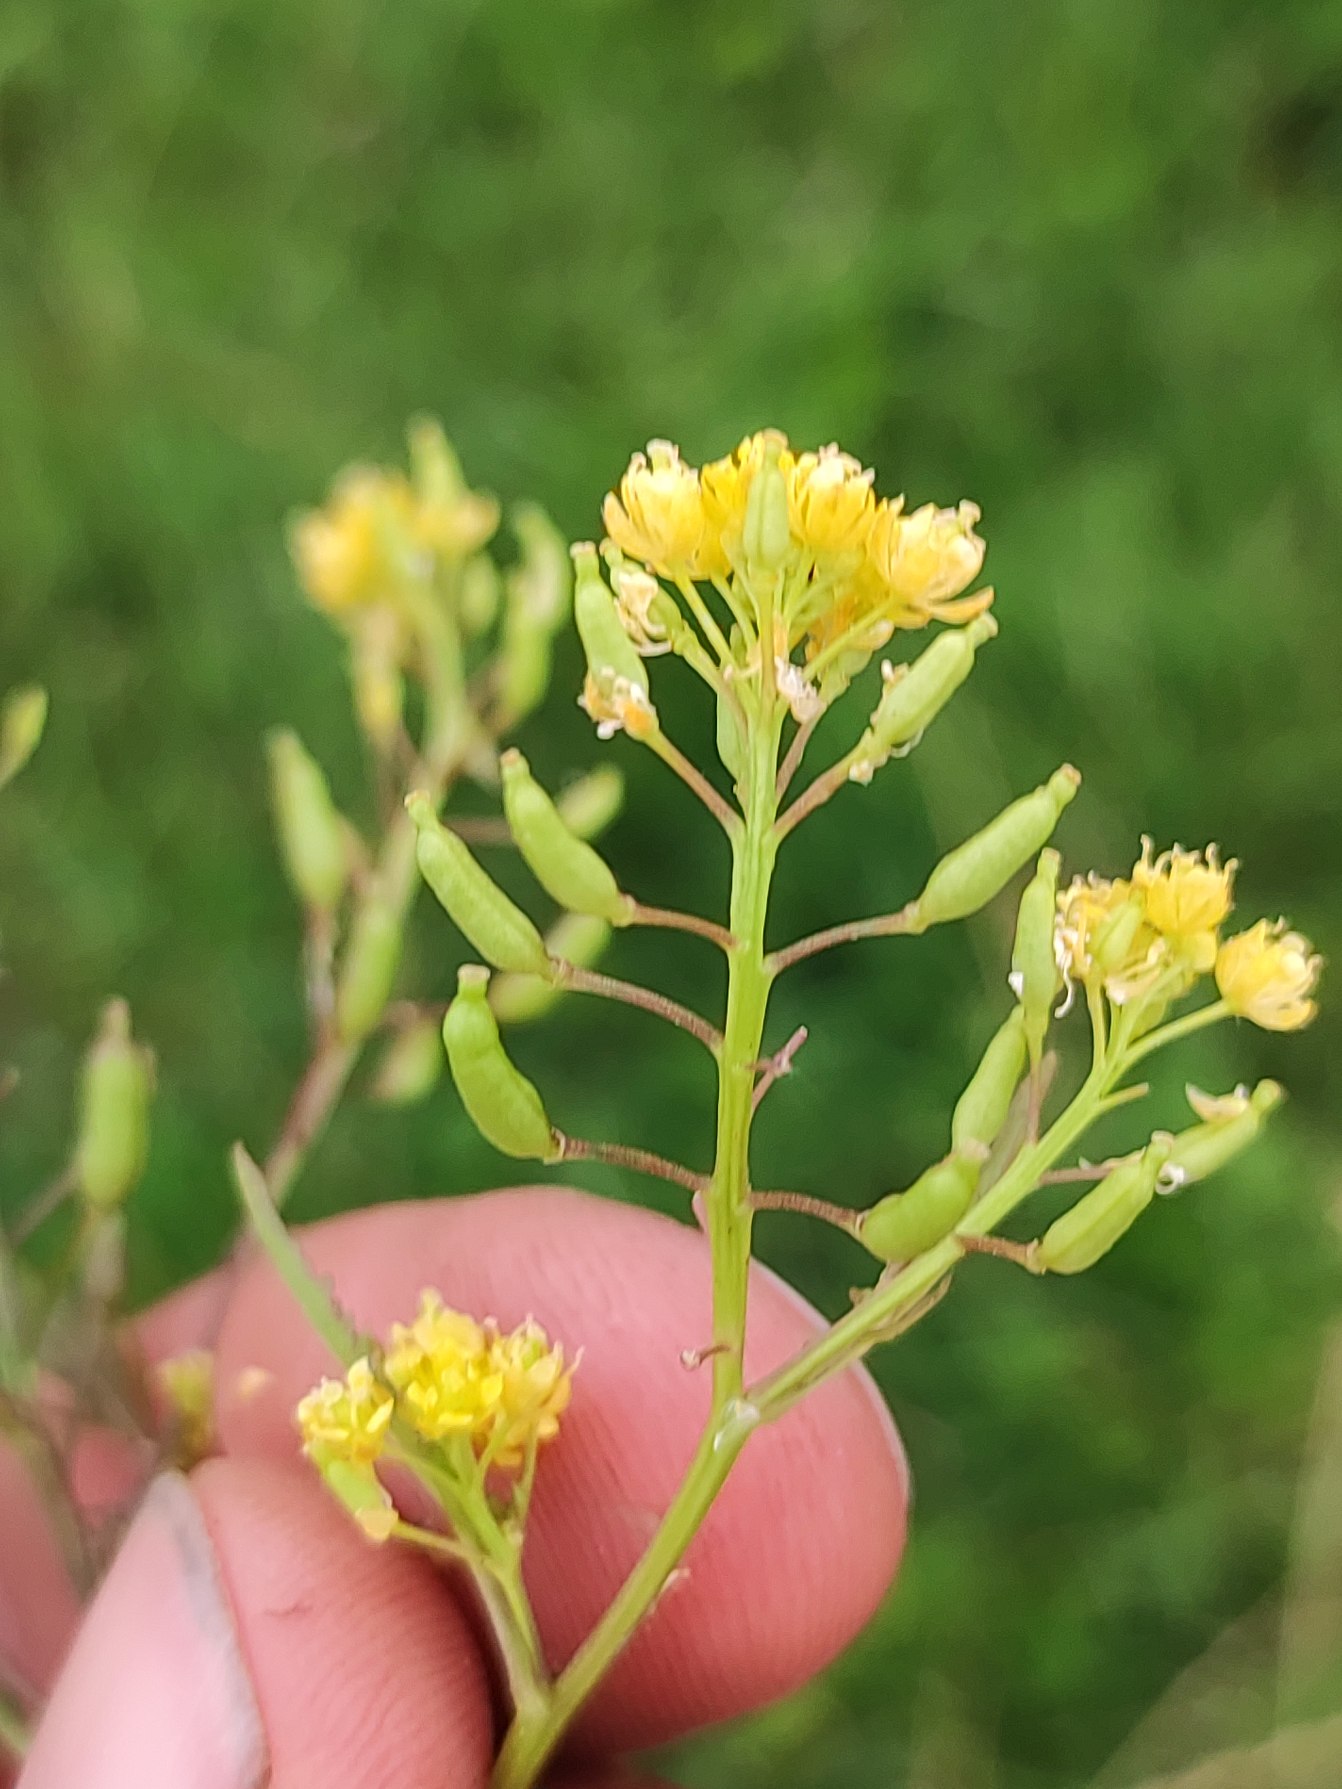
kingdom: Plantae
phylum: Tracheophyta
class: Magnoliopsida
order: Brassicales
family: Brassicaceae
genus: Rorippa
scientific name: Rorippa palustris
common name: Kær-guldkarse
